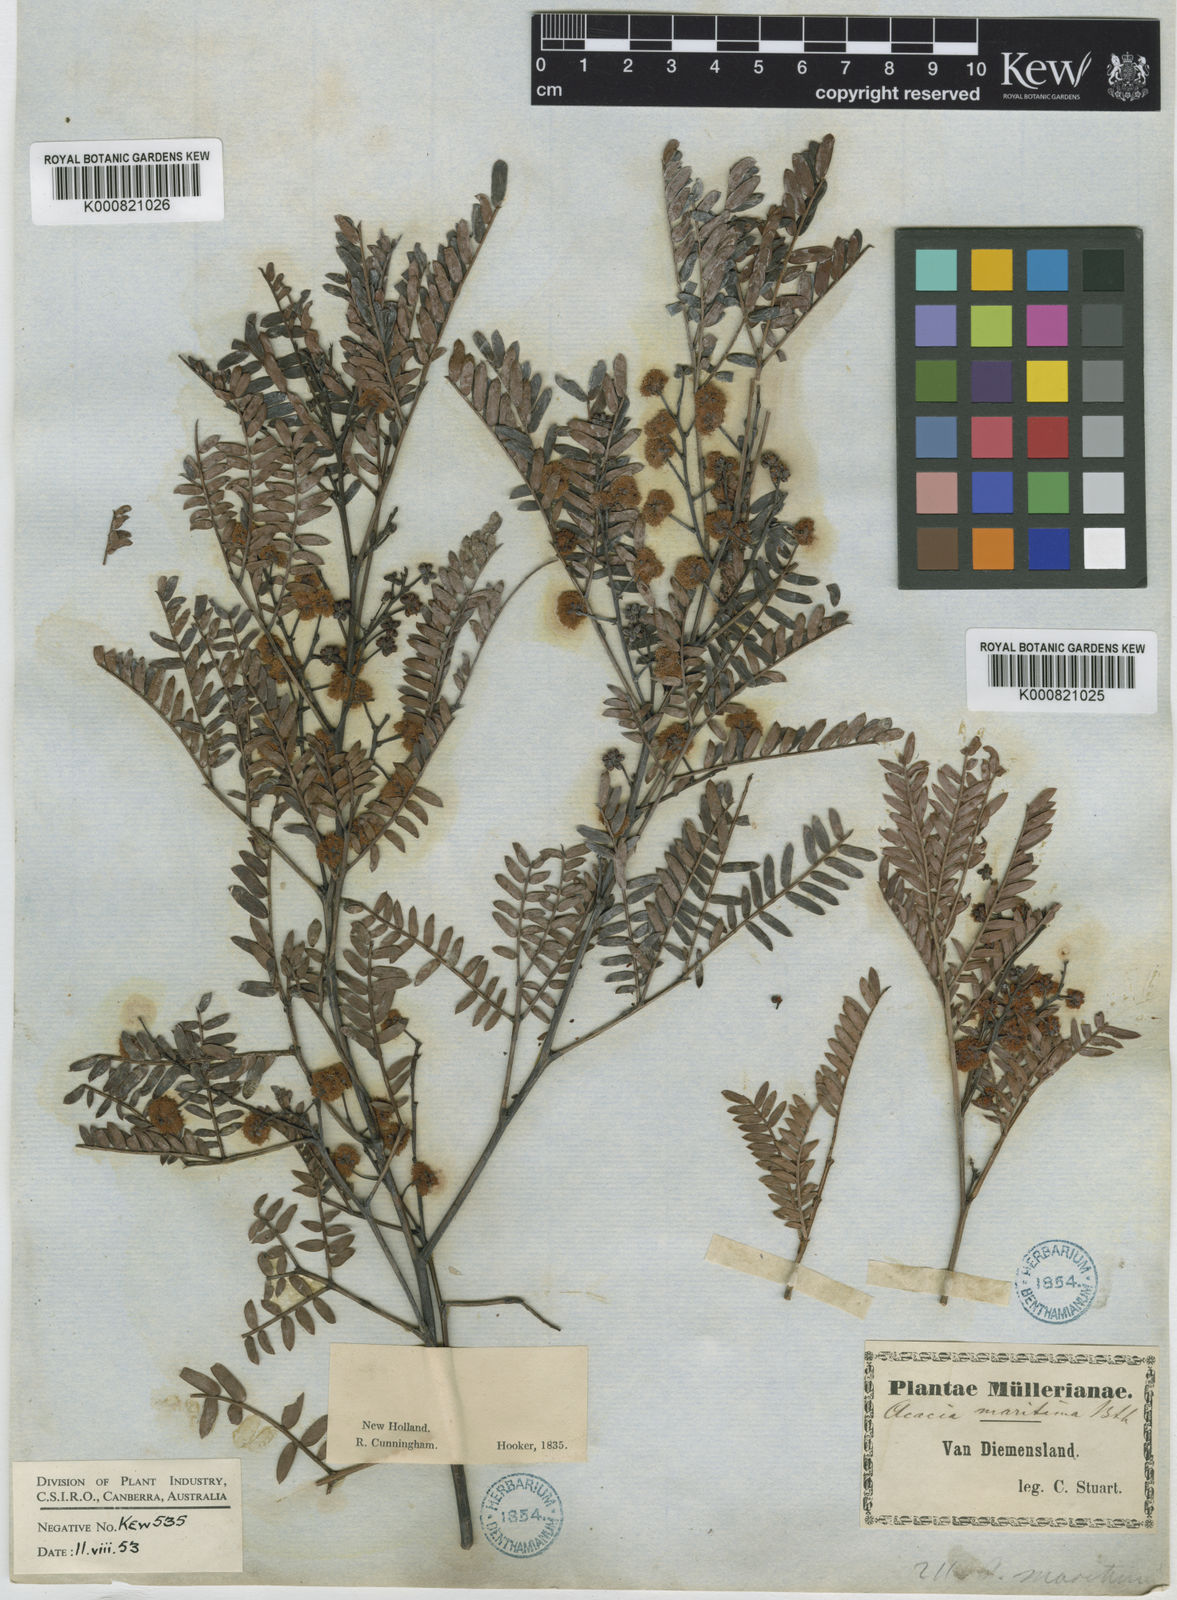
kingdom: Plantae
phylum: Tracheophyta
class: Magnoliopsida
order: Fabales
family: Fabaceae
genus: Acacia
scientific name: Acacia terminalis
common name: Cedar wattle
